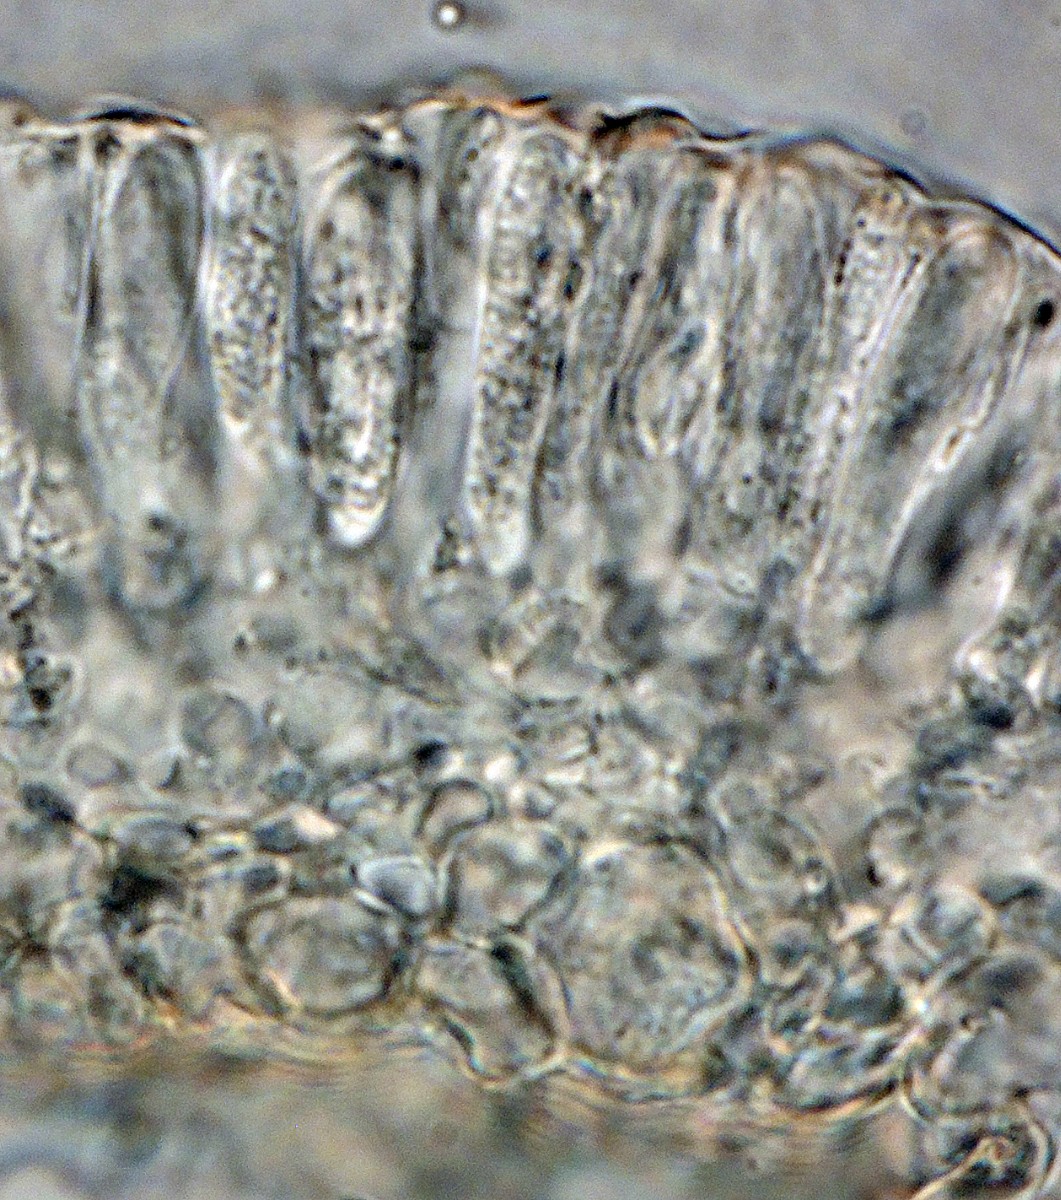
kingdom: Fungi
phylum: Ascomycota
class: Orbiliomycetes
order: Orbiliales
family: Orbiliaceae
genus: Hyalorbilia
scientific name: Hyalorbilia tortuosa
